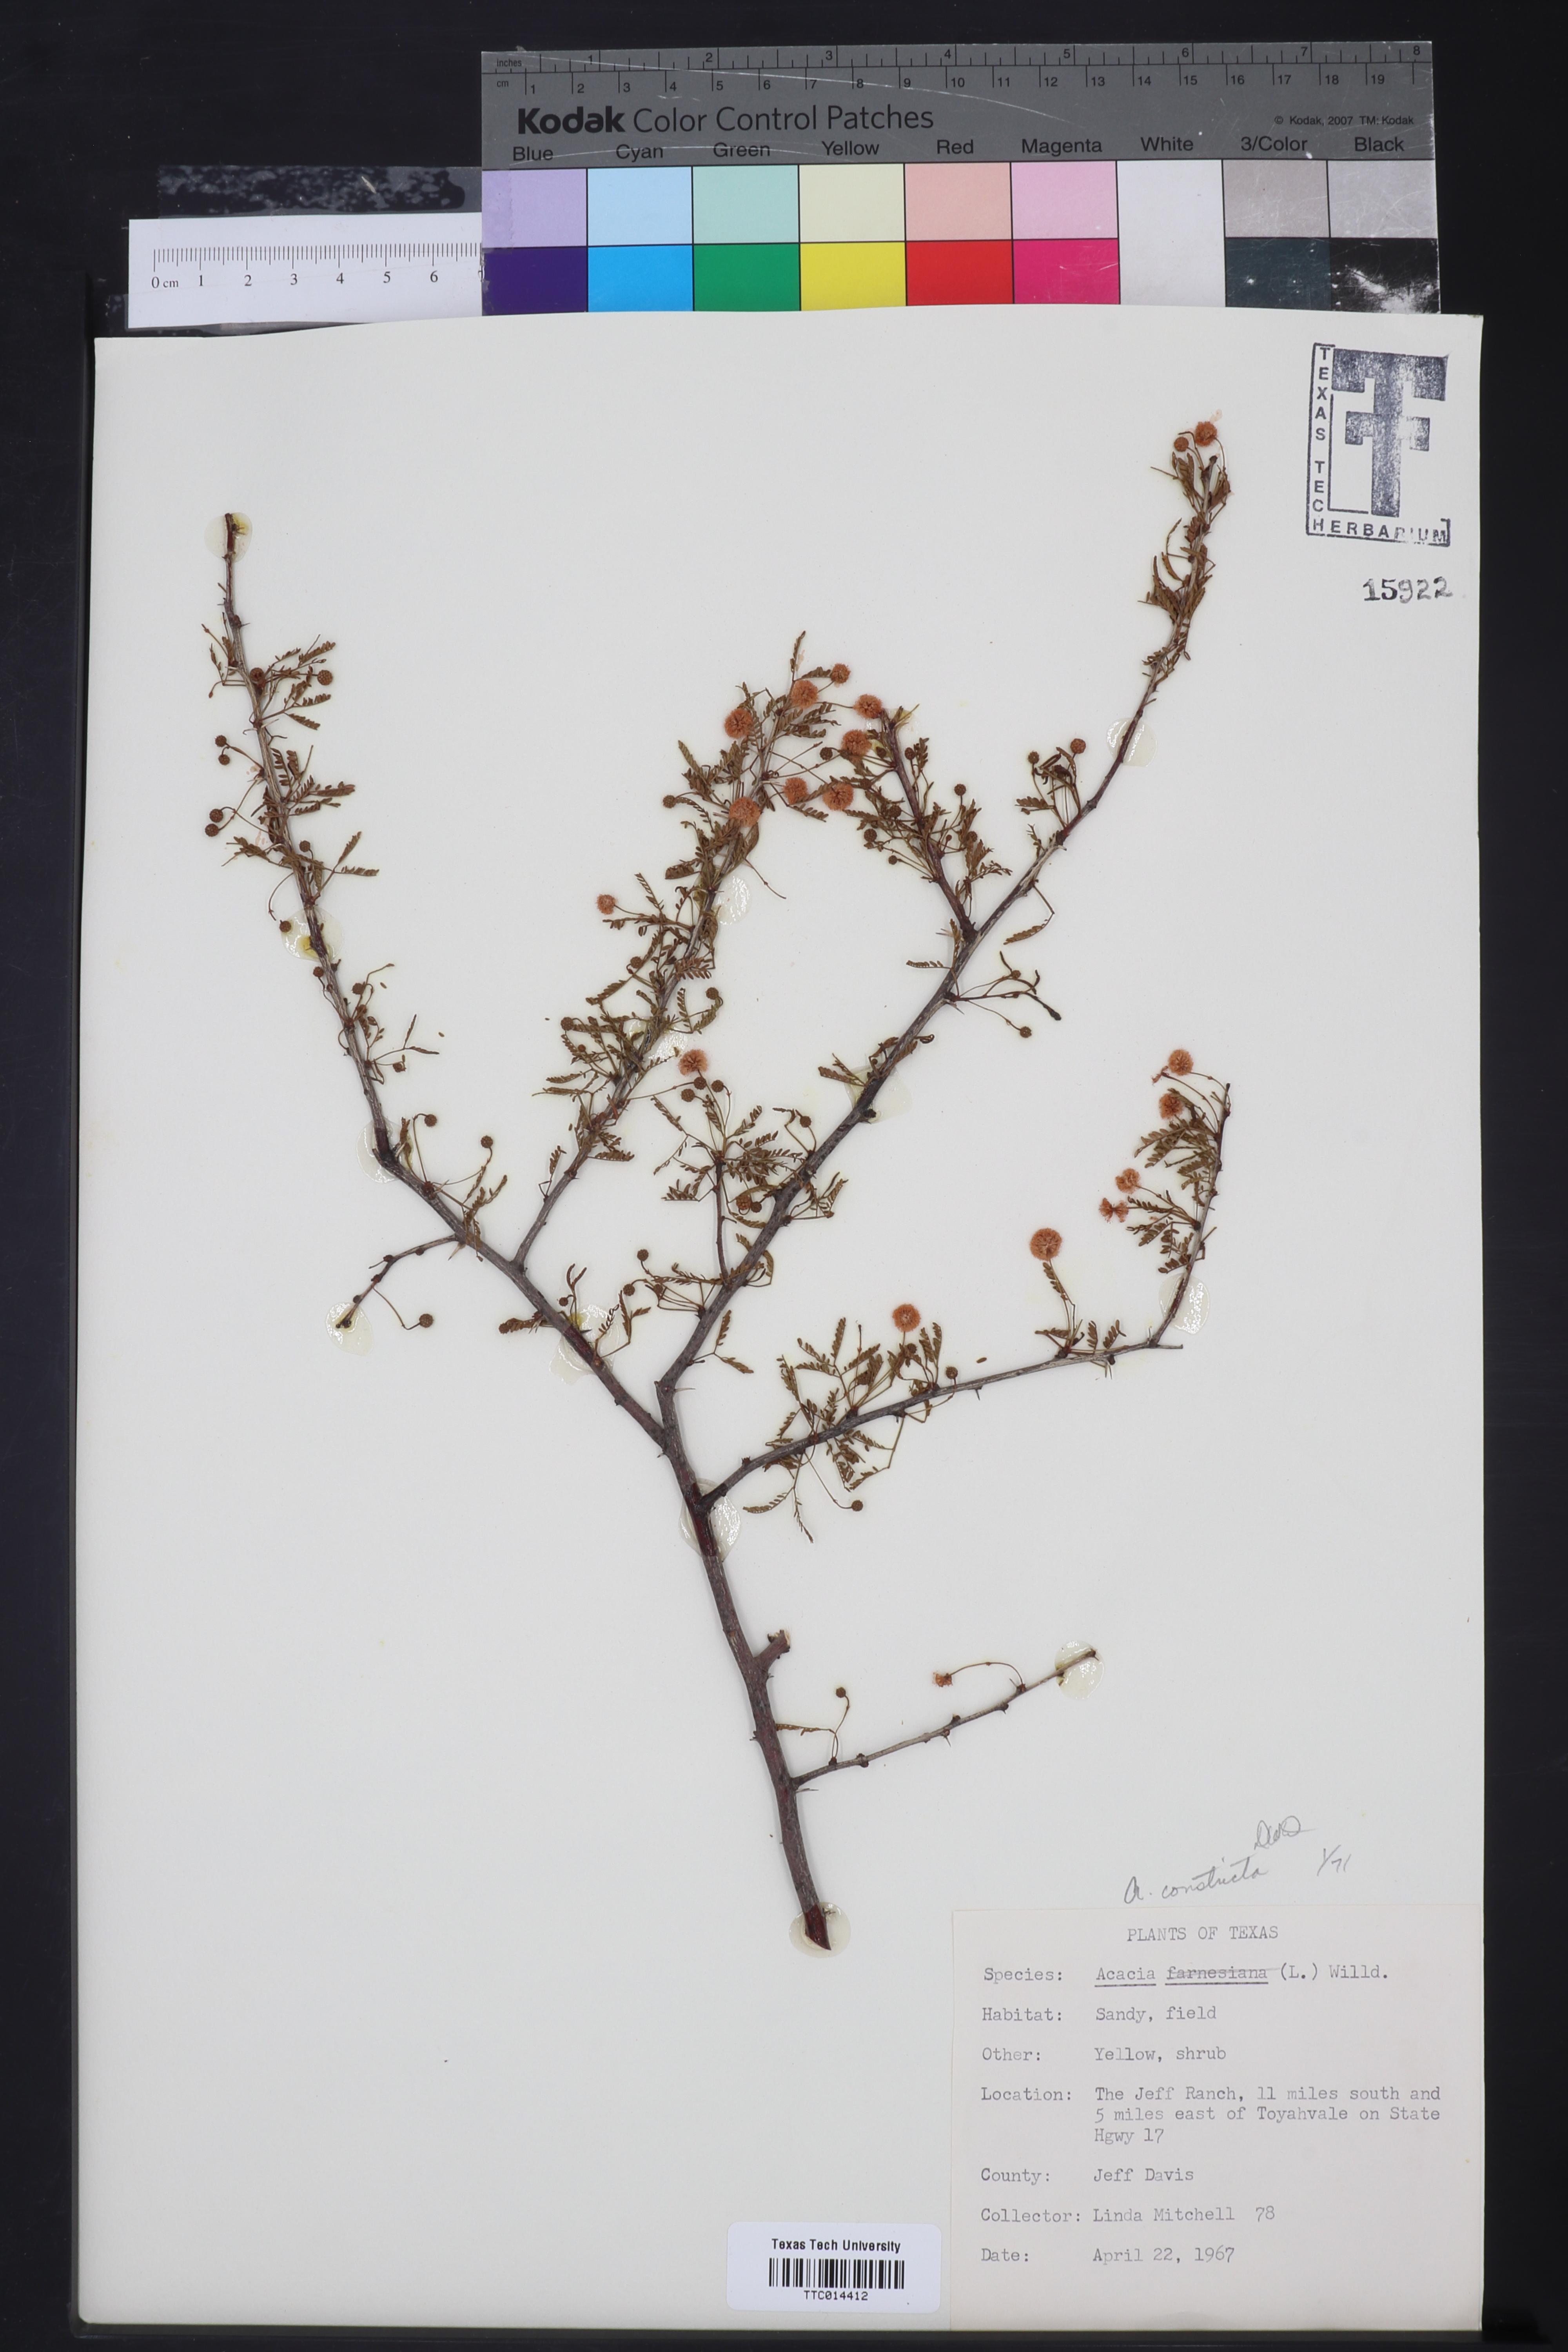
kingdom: Plantae
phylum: Tracheophyta
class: Magnoliopsida
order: Fabales
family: Fabaceae
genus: Vachellia
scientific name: Vachellia constricta
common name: Mescat acacia
